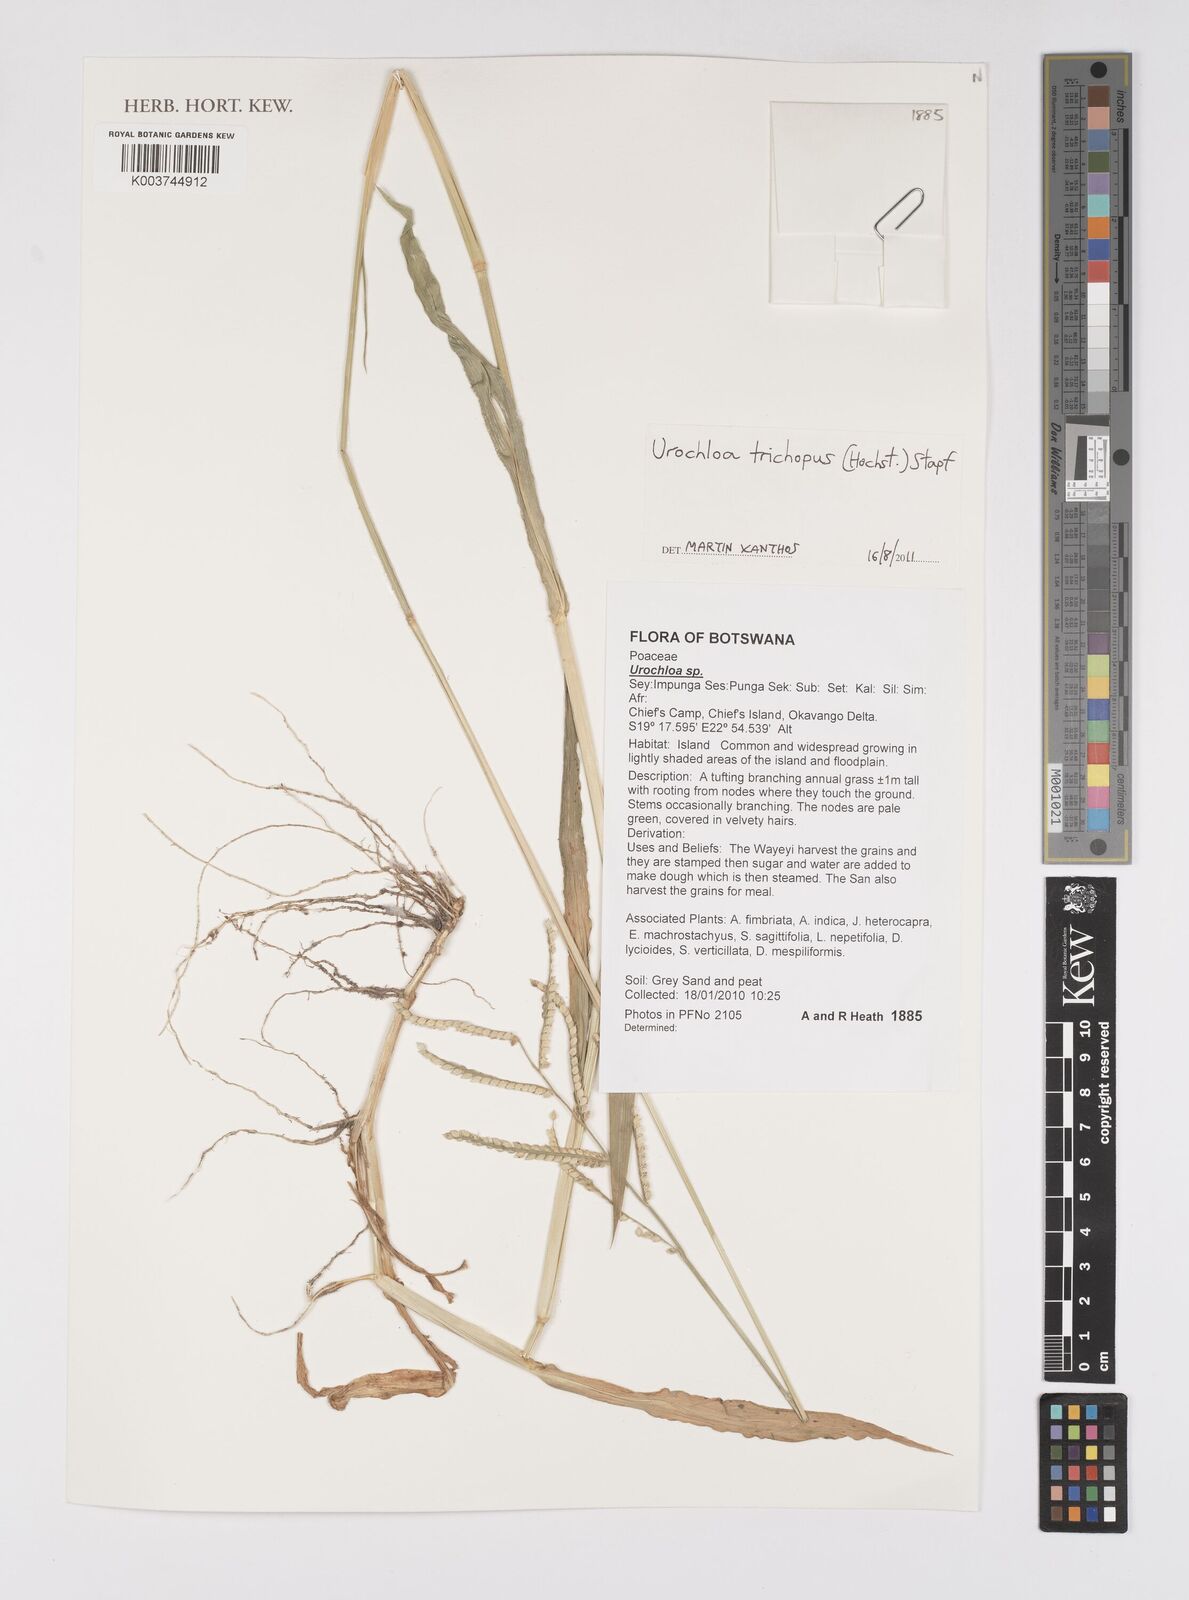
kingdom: Plantae
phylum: Tracheophyta
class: Liliopsida
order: Poales
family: Poaceae
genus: Urochloa
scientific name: Urochloa trichopus
